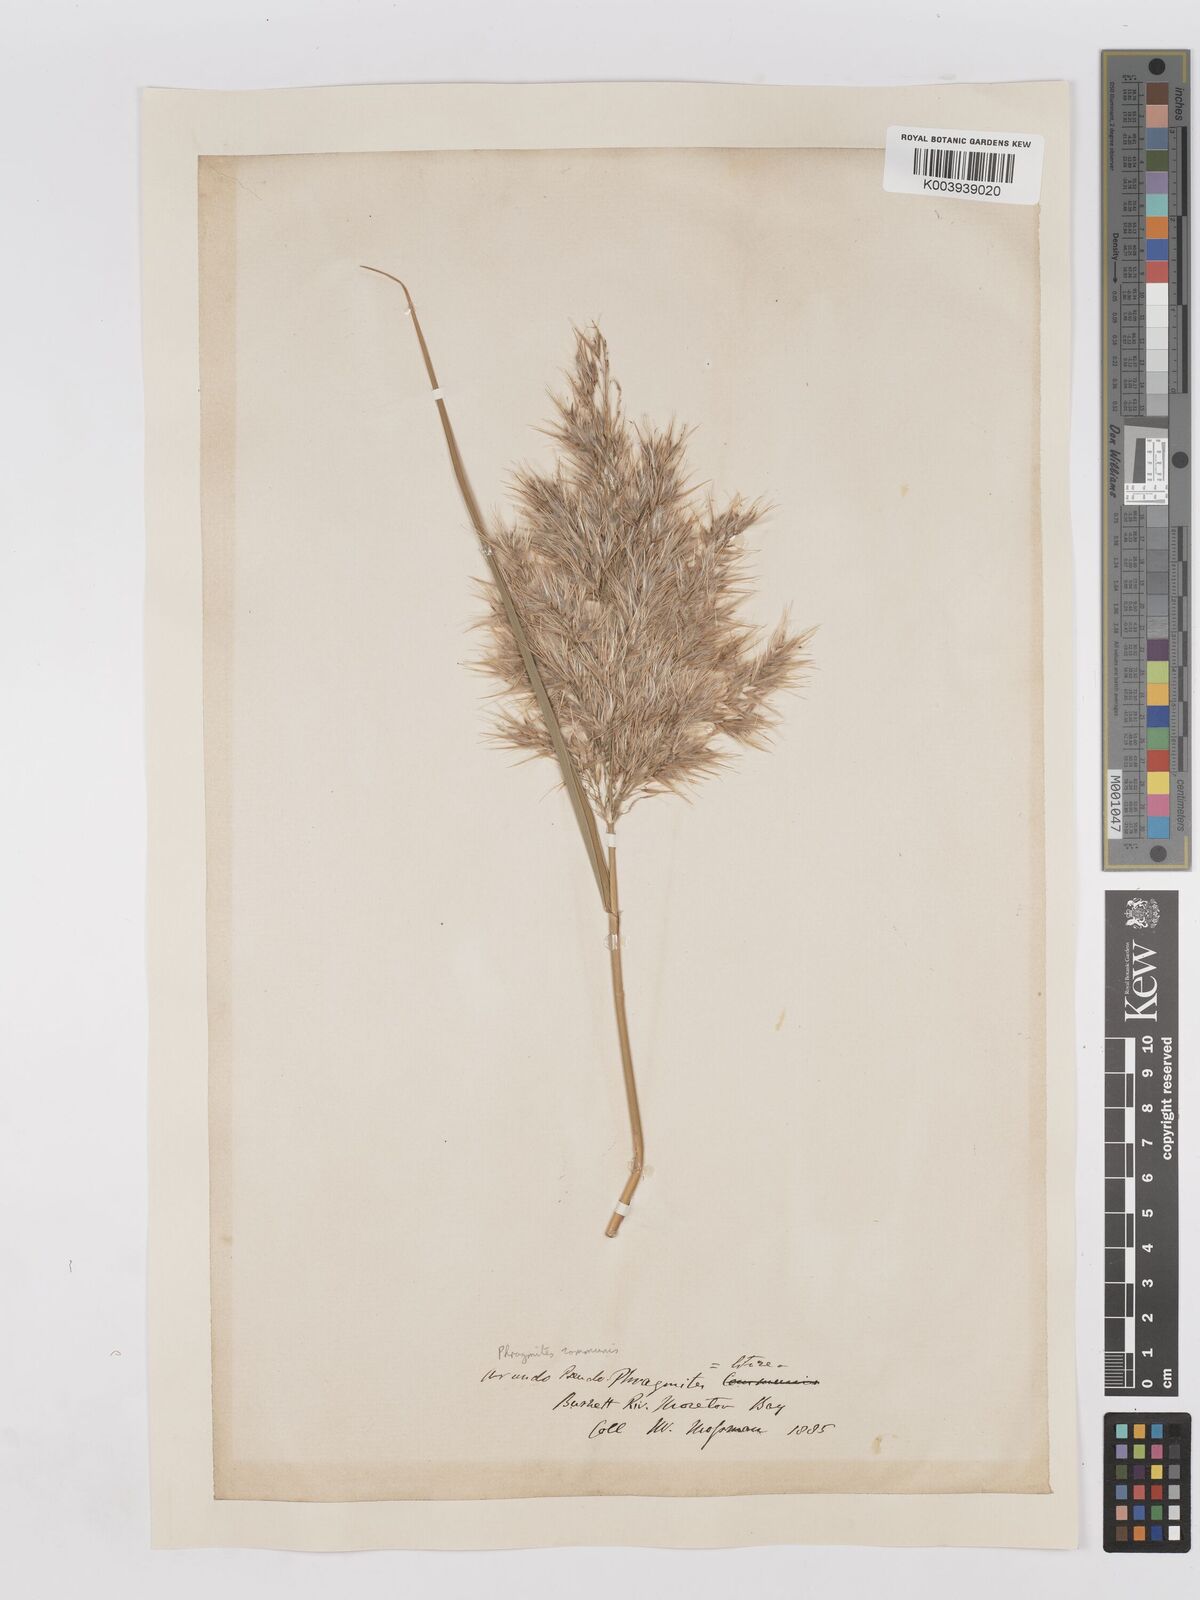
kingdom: Plantae
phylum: Tracheophyta
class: Liliopsida
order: Poales
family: Poaceae
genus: Phragmites
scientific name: Phragmites australis
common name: Common reed
